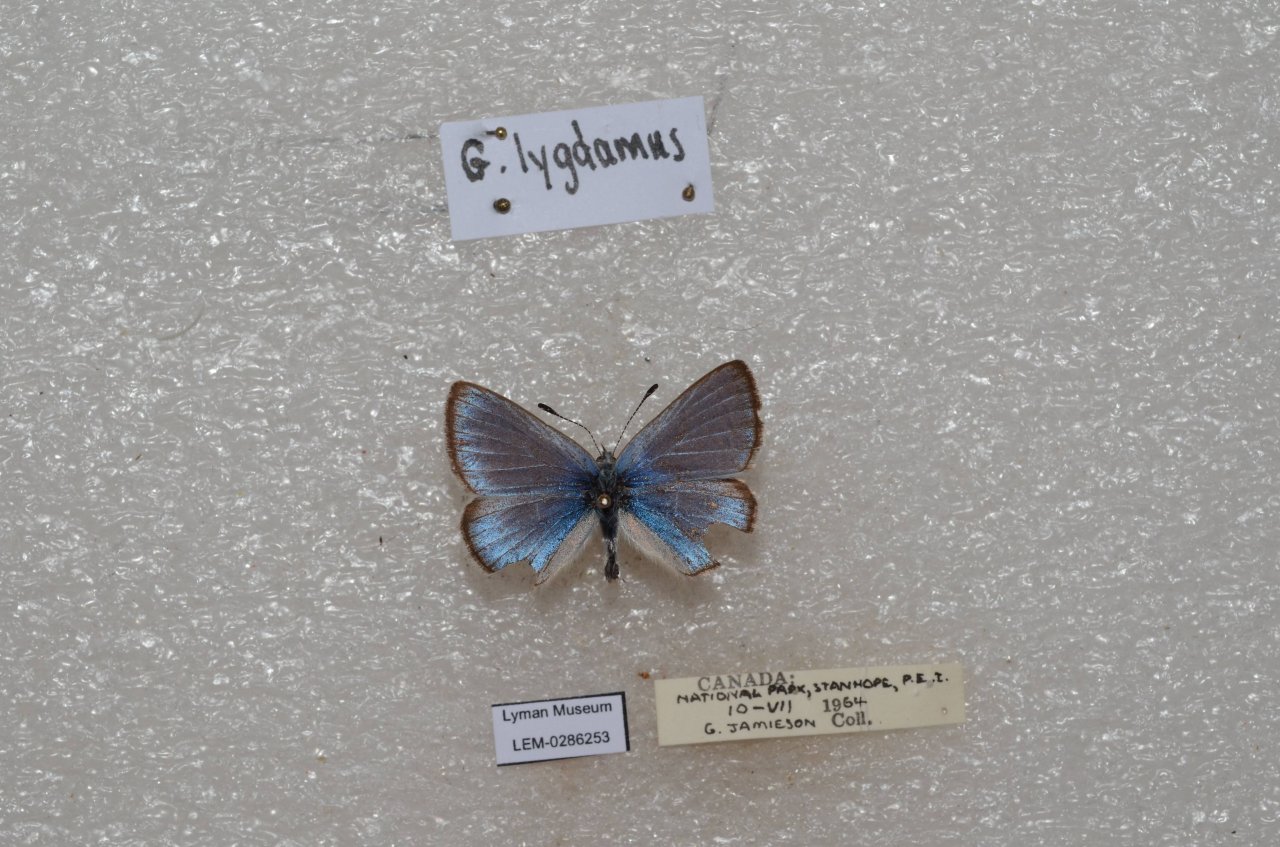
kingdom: Animalia
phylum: Arthropoda
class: Insecta
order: Lepidoptera
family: Lycaenidae
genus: Glaucopsyche
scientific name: Glaucopsyche lygdamus
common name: Silvery Blue
